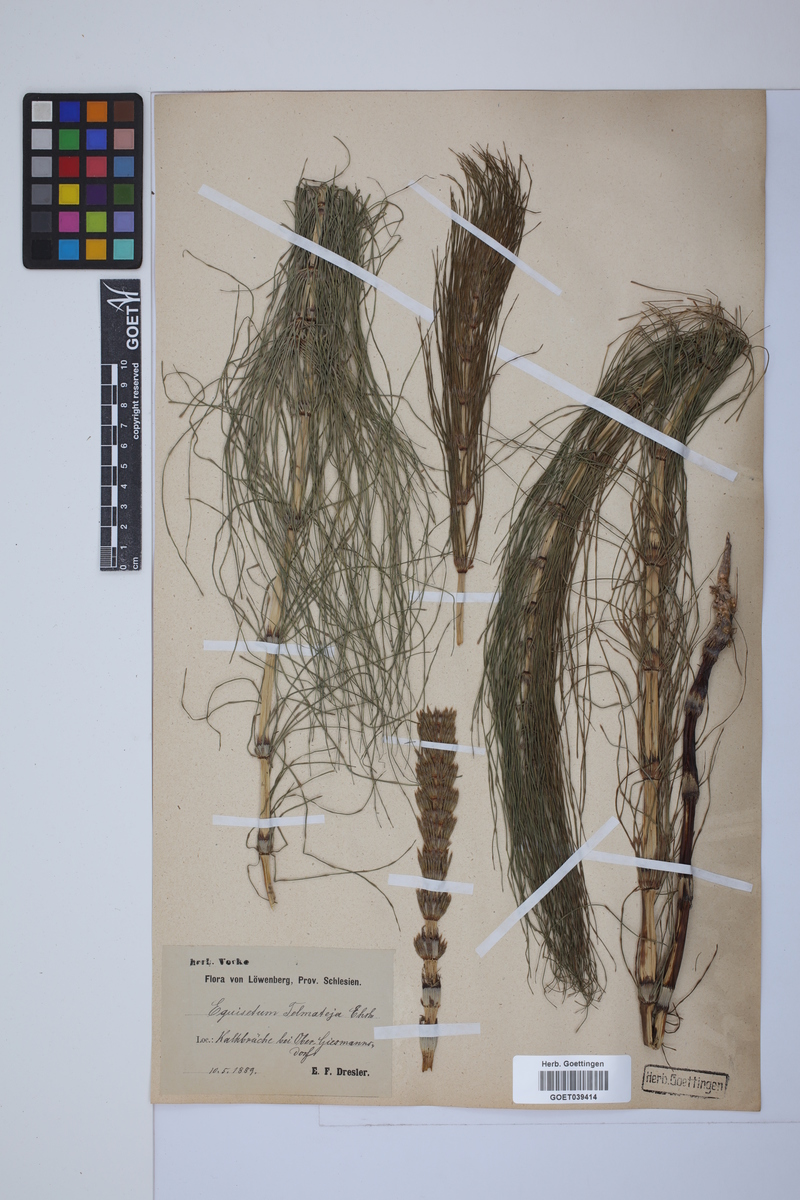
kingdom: Plantae
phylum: Tracheophyta
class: Polypodiopsida
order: Equisetales
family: Equisetaceae
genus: Equisetum
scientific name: Equisetum telmateia
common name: Great horsetail
